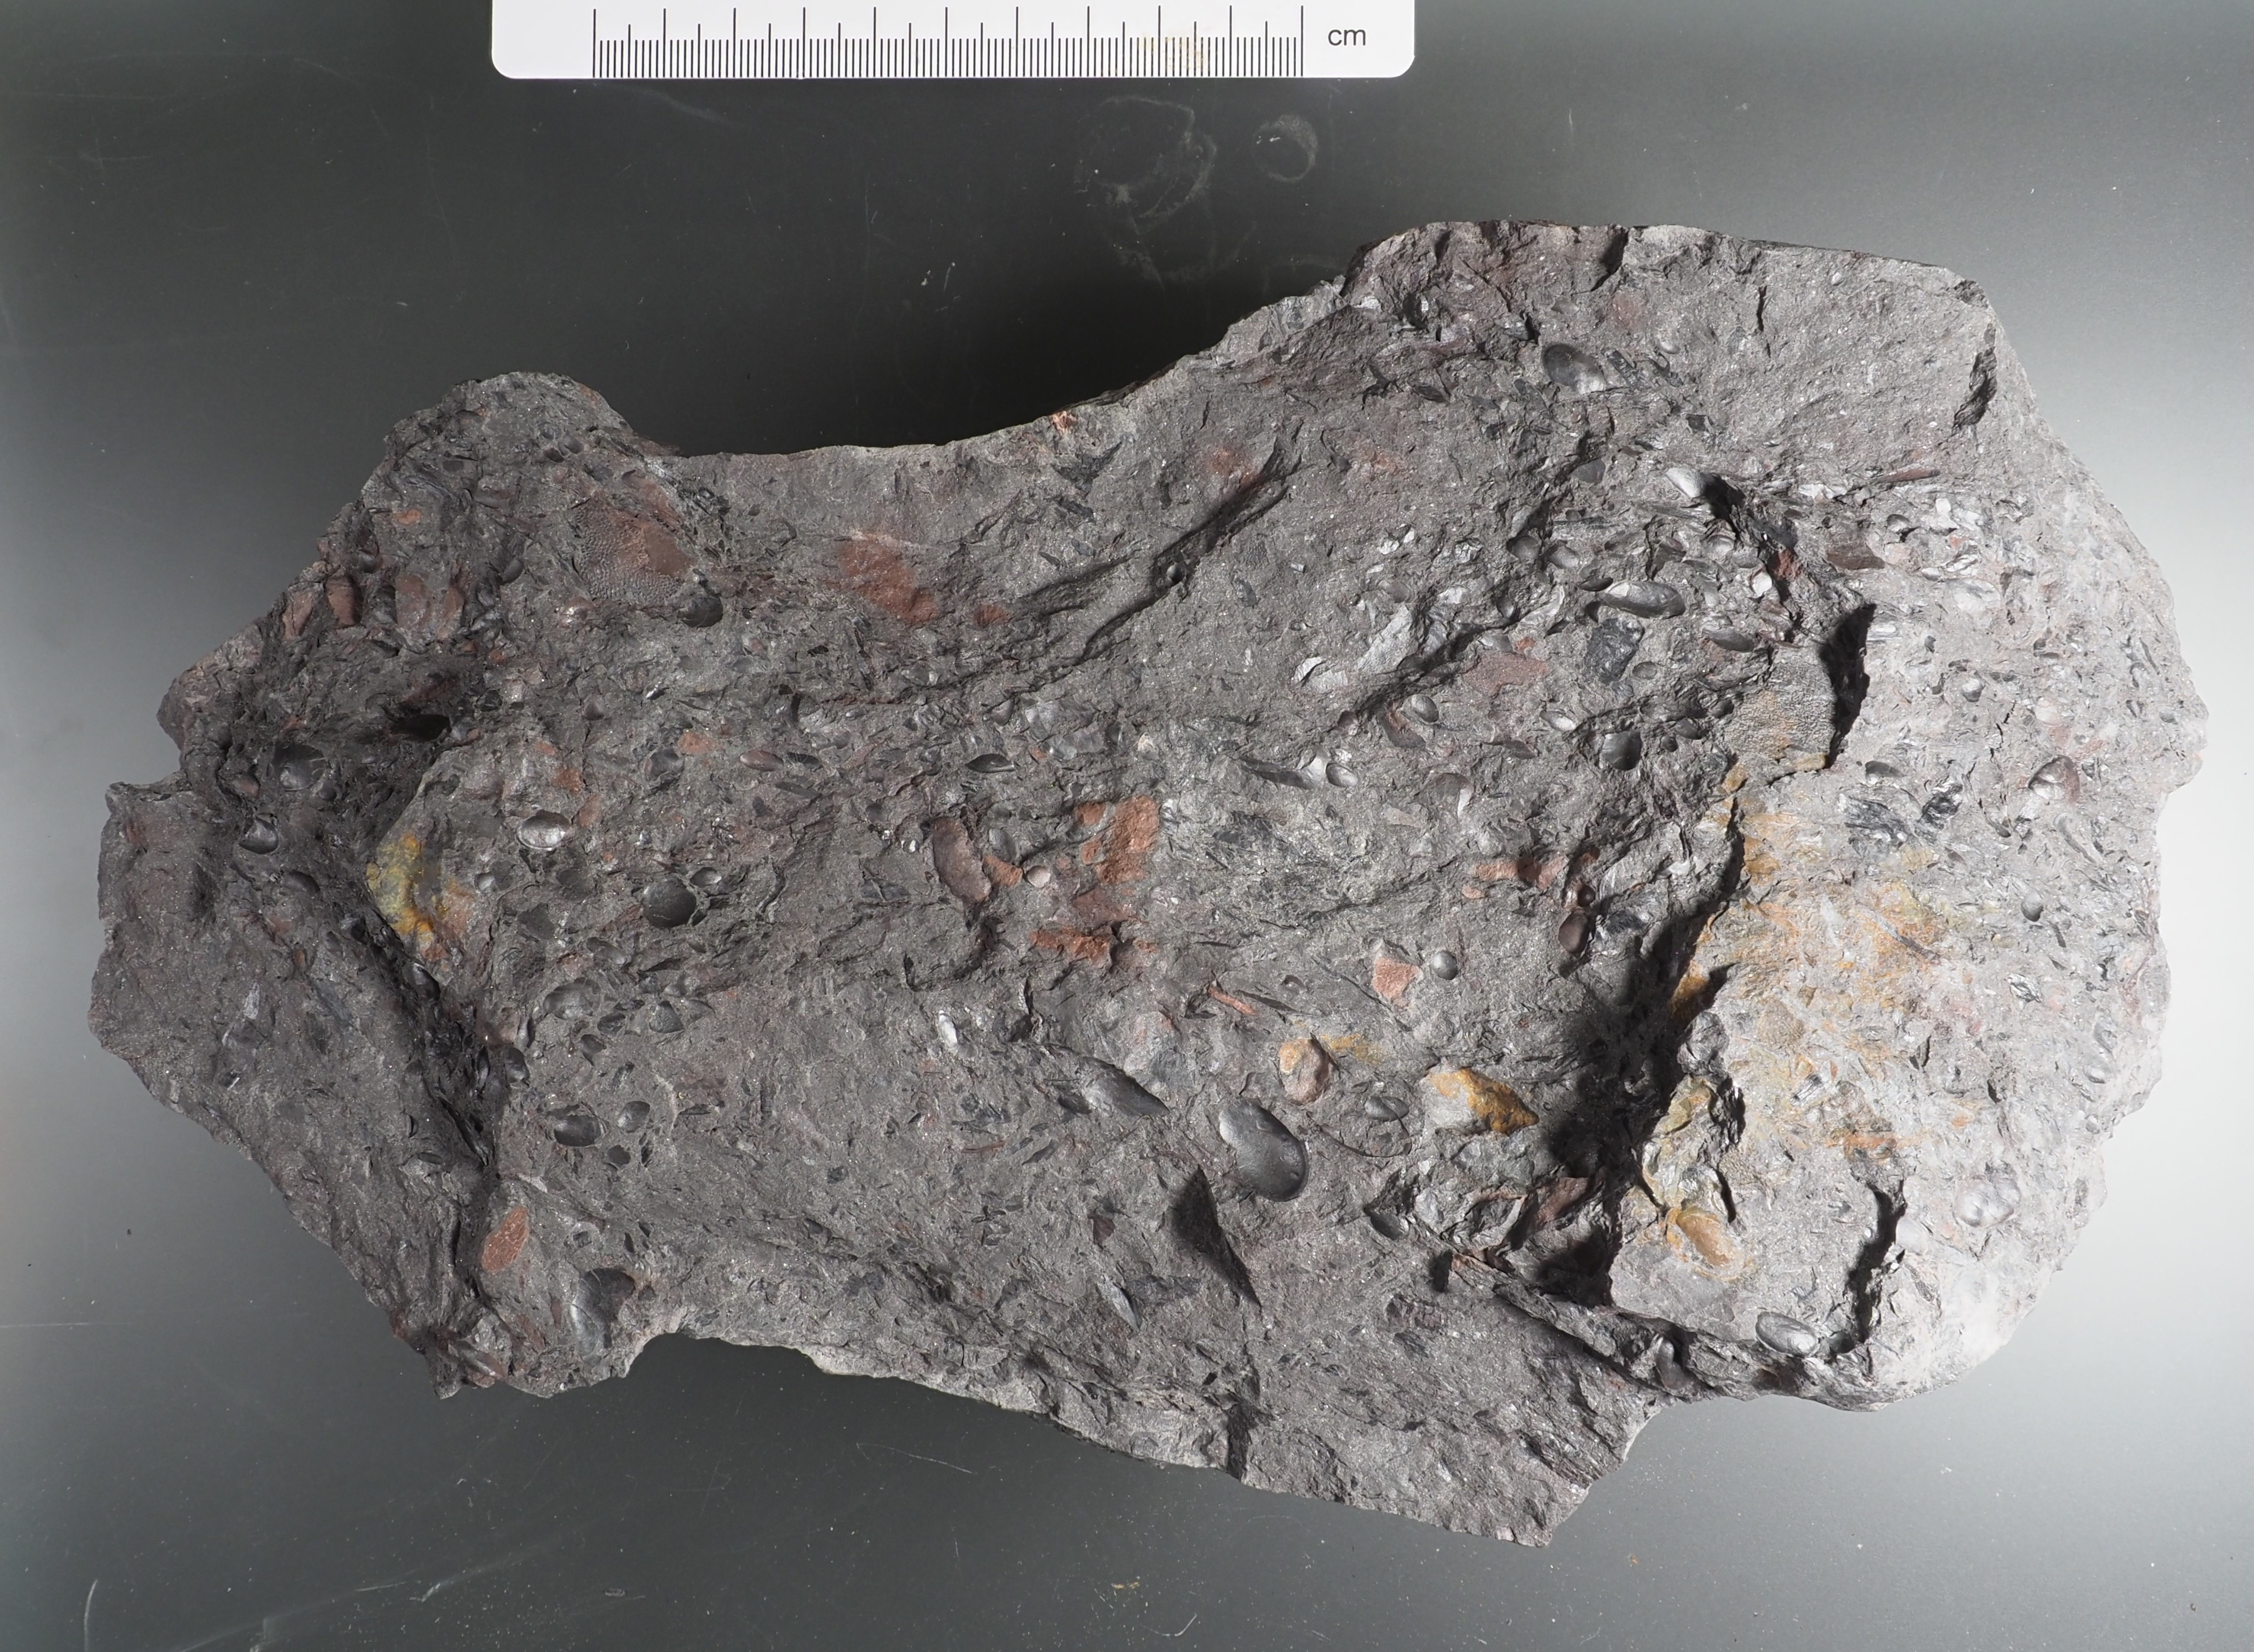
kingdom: Animalia
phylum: Arthropoda
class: Ostracoda
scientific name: Ostracoda
